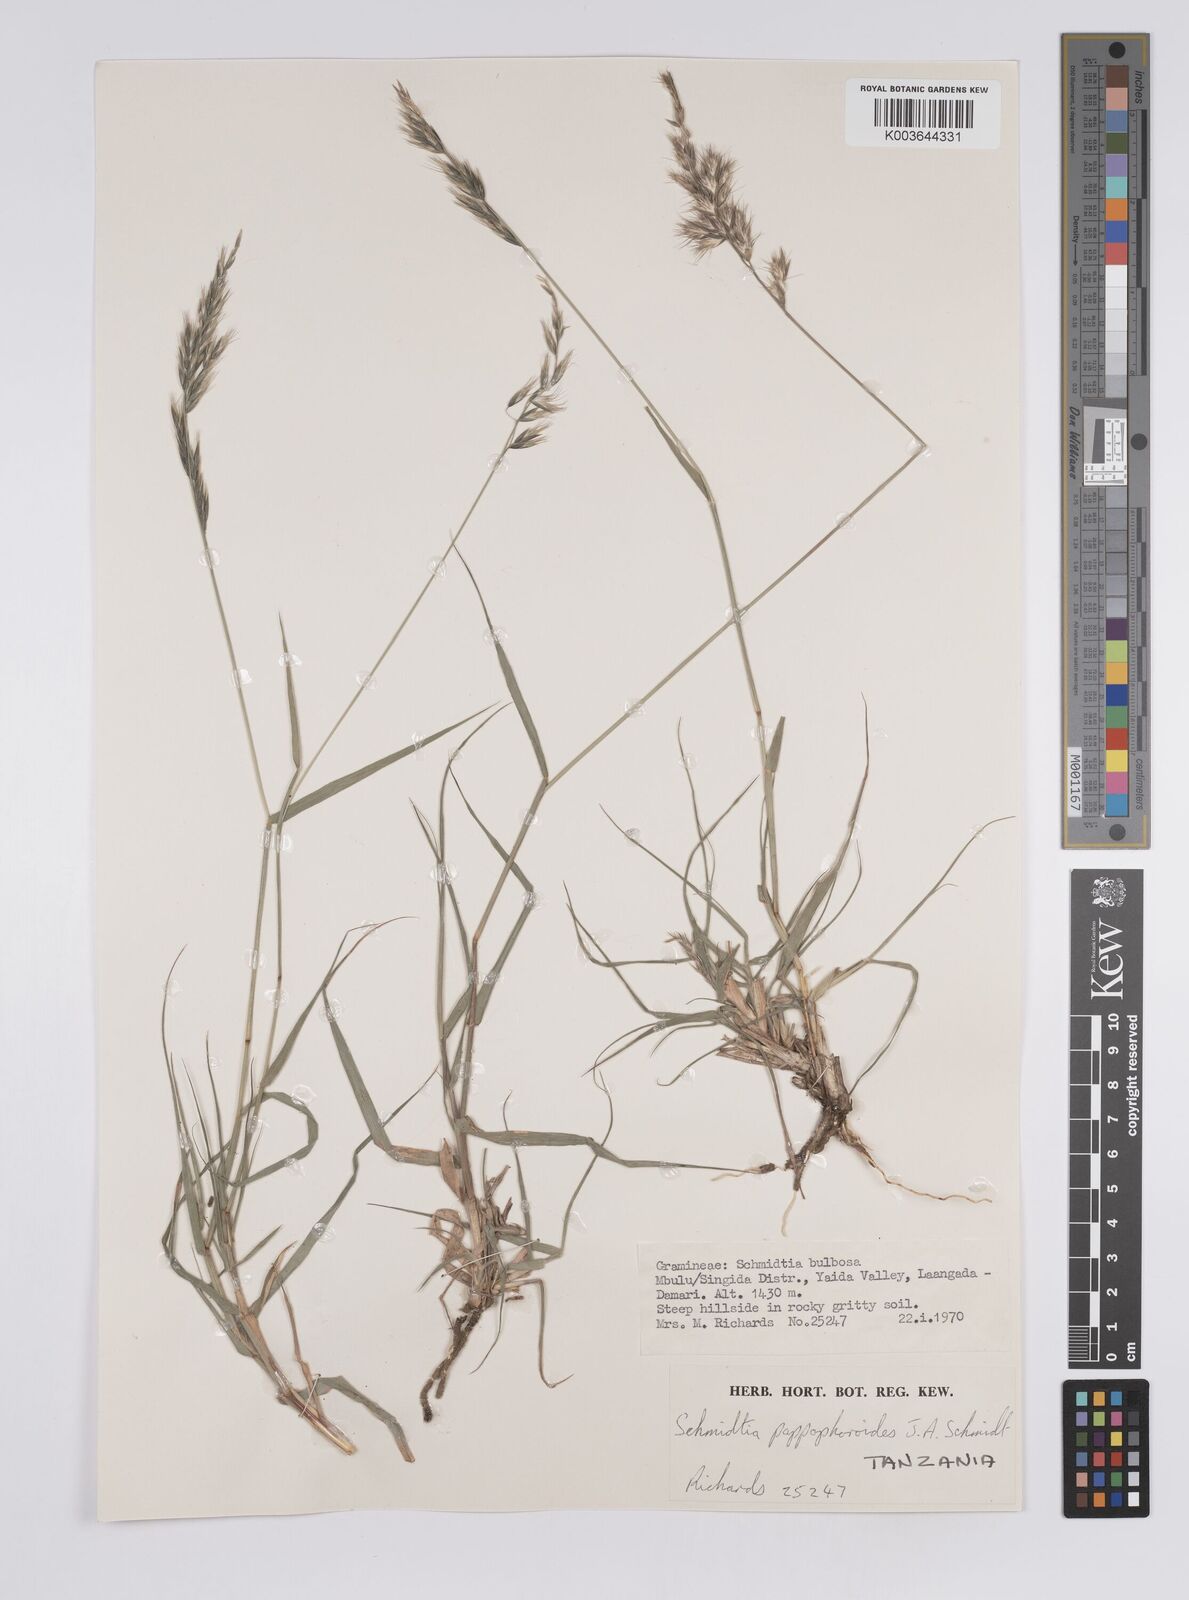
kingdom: Plantae
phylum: Tracheophyta
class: Liliopsida
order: Poales
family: Poaceae
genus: Schmidtia
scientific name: Schmidtia pappophoroides
